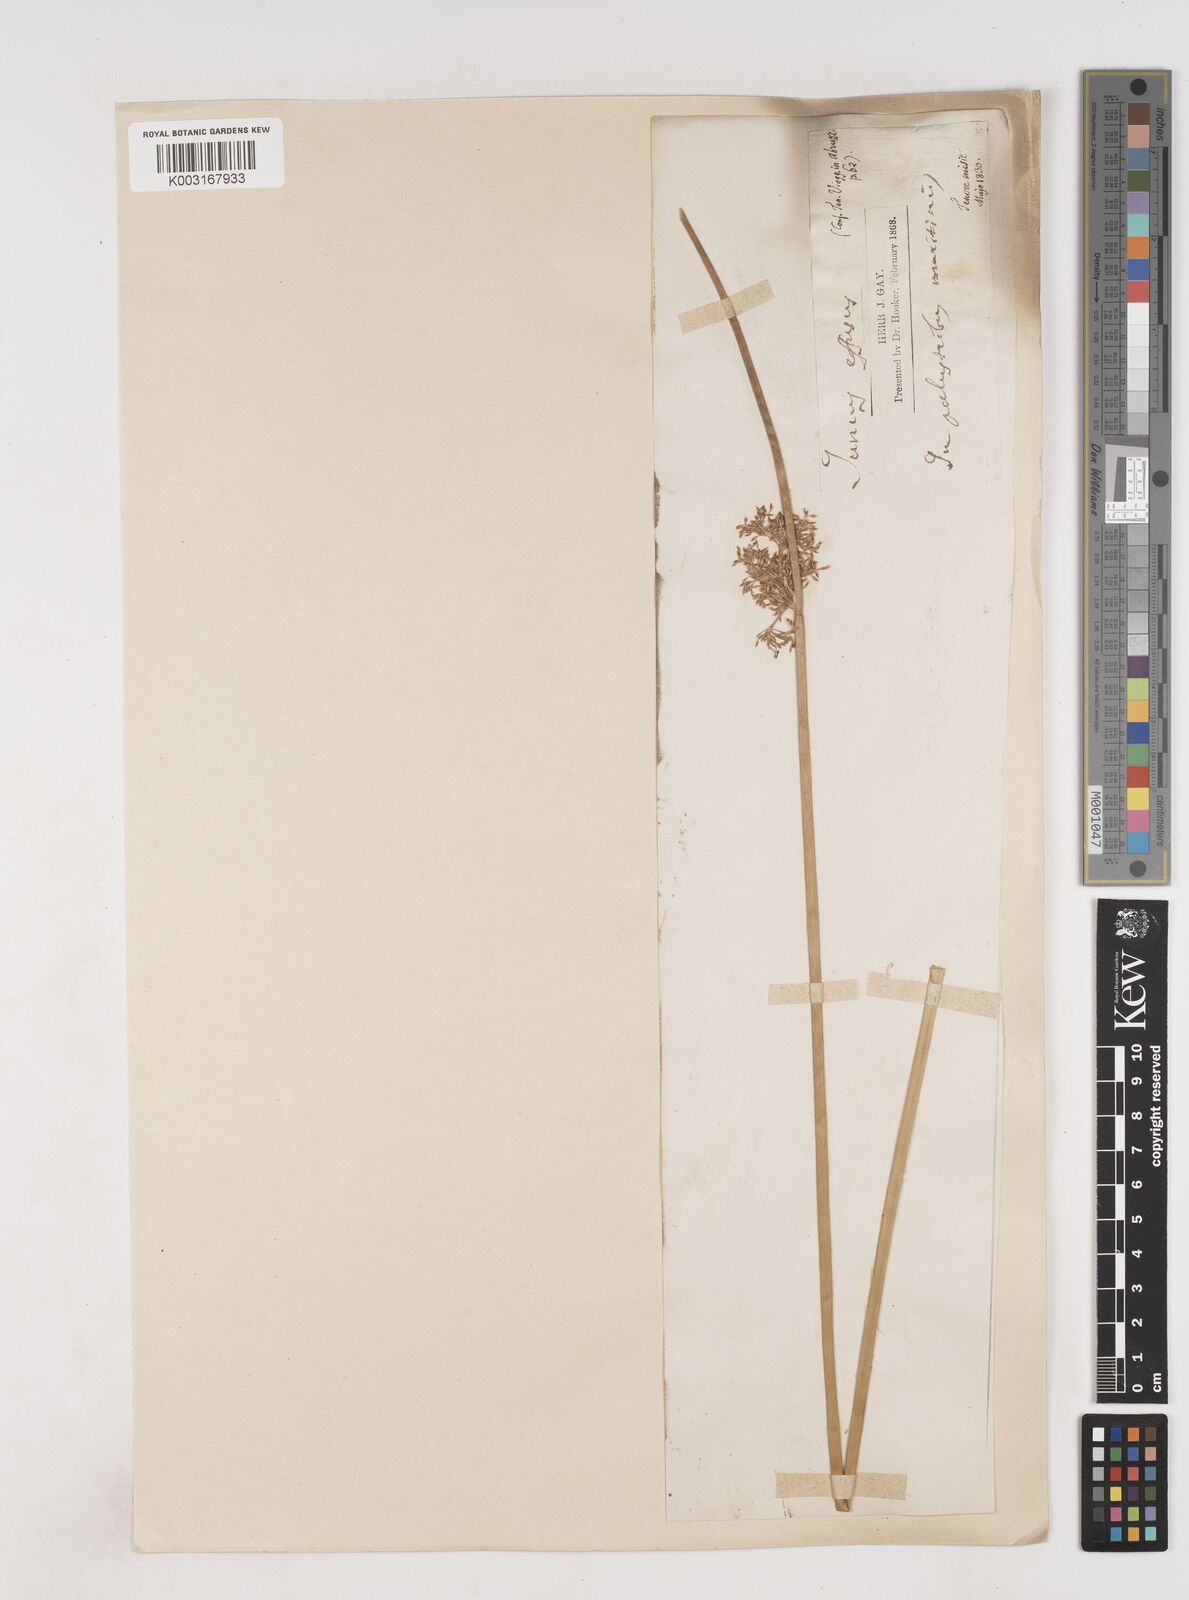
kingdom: Plantae
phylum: Tracheophyta
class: Liliopsida
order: Poales
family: Juncaceae
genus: Juncus
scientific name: Juncus effusus
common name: Soft rush
